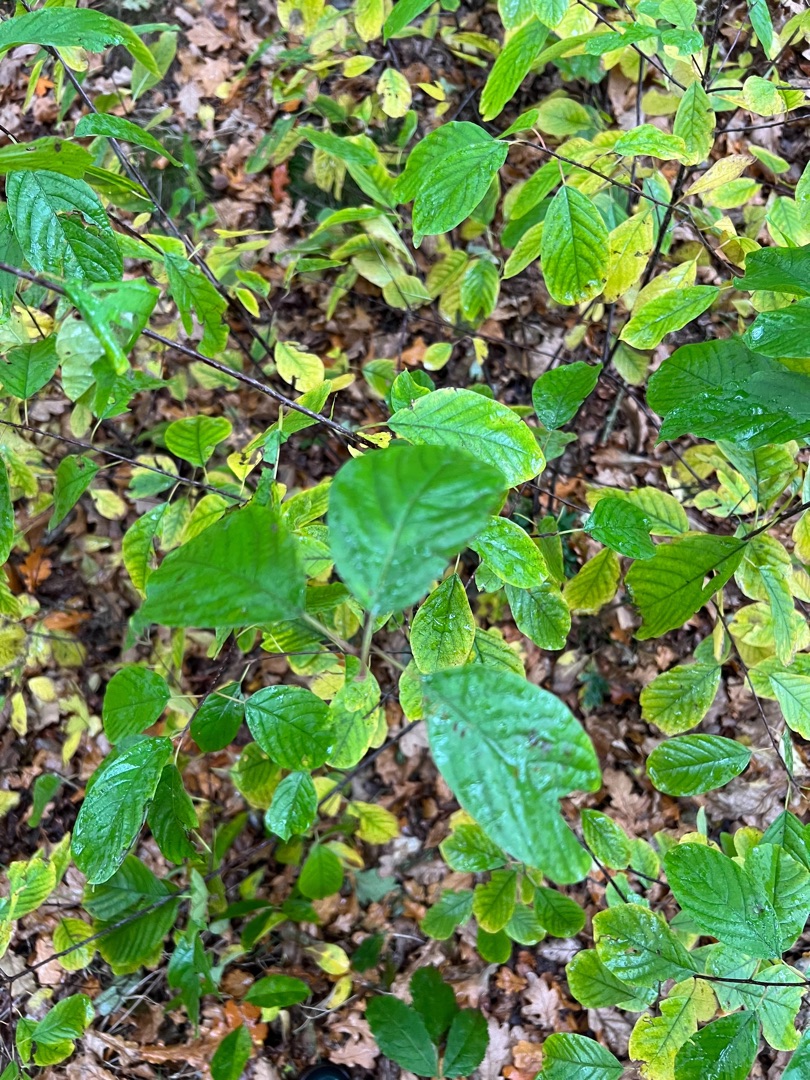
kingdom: Plantae
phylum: Tracheophyta
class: Magnoliopsida
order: Rosales
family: Rhamnaceae
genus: Frangula
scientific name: Frangula alnus
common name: Tørst
